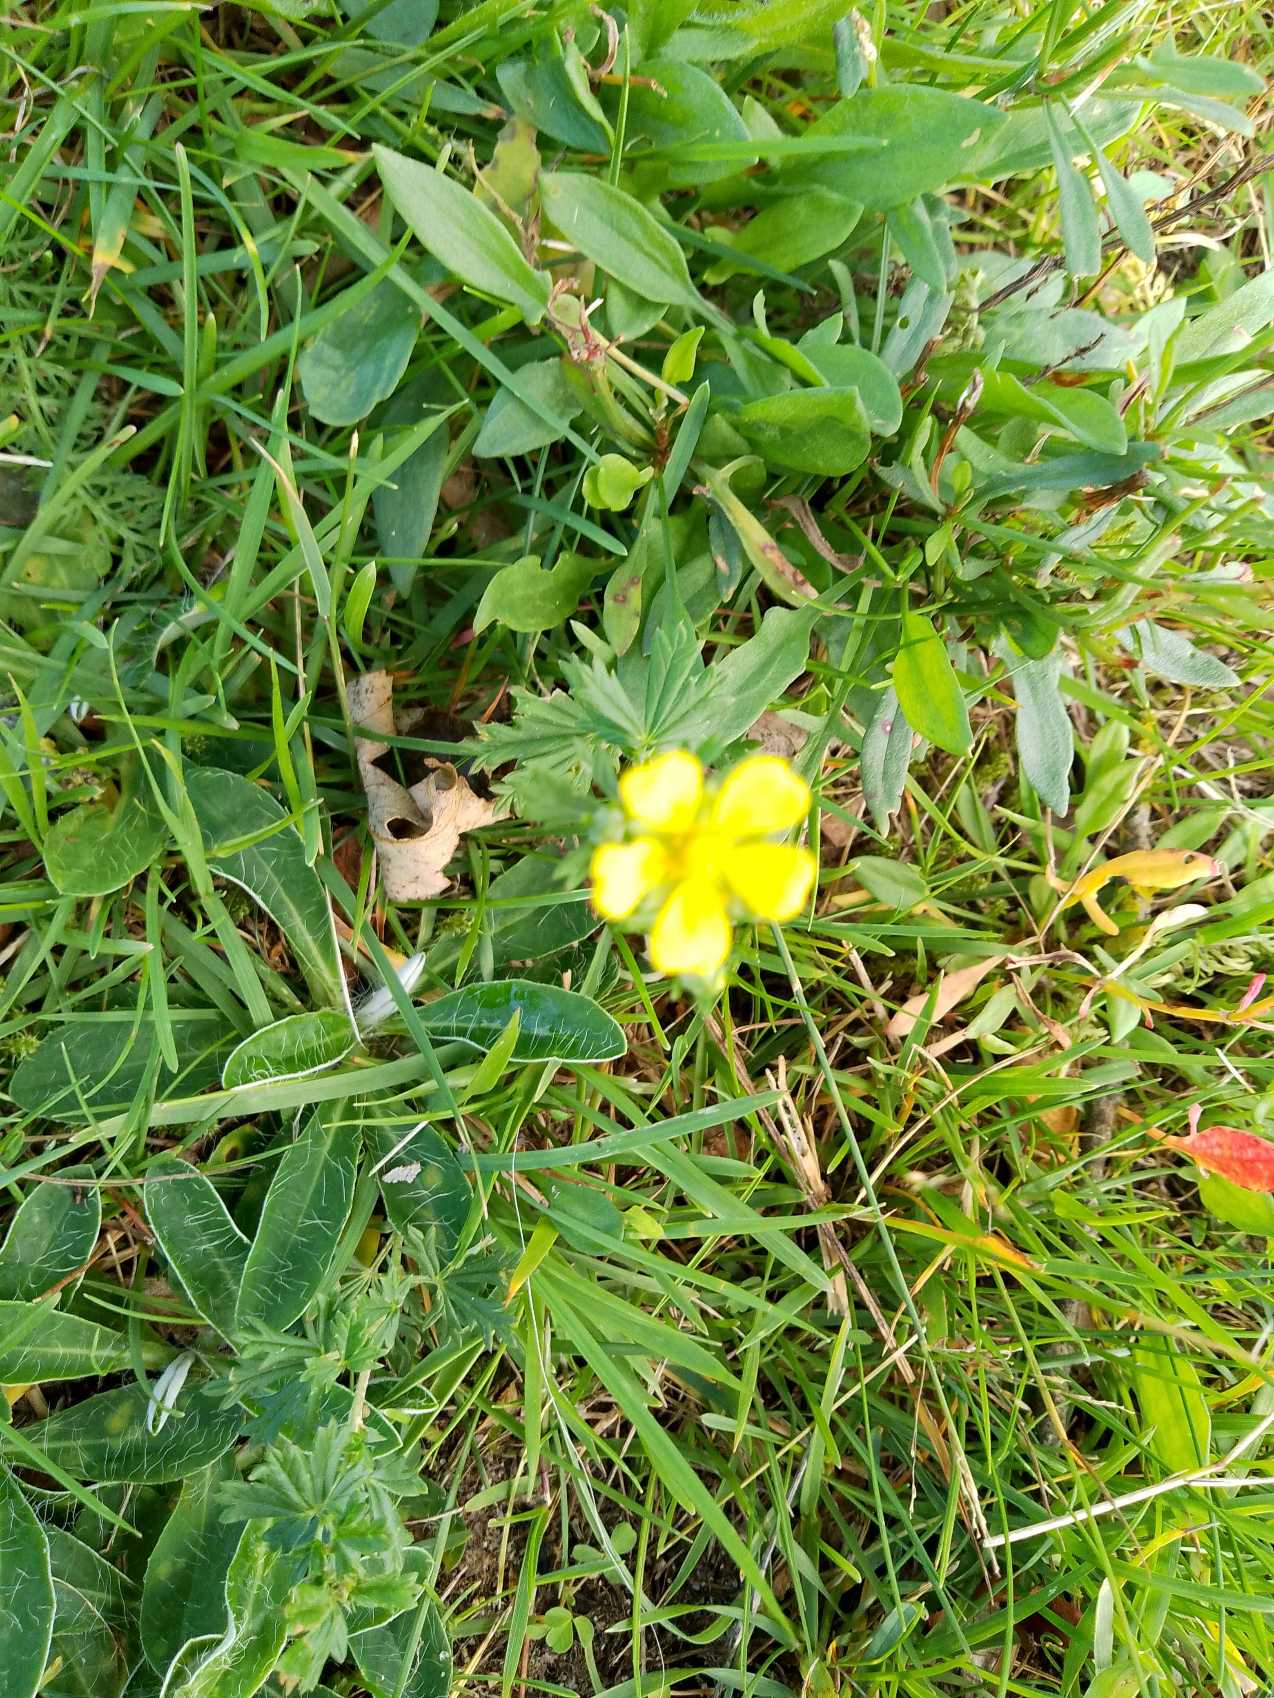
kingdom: Plantae
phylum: Tracheophyta
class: Magnoliopsida
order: Rosales
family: Rosaceae
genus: Potentilla
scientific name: Potentilla argentea
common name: Sølv-potentil
